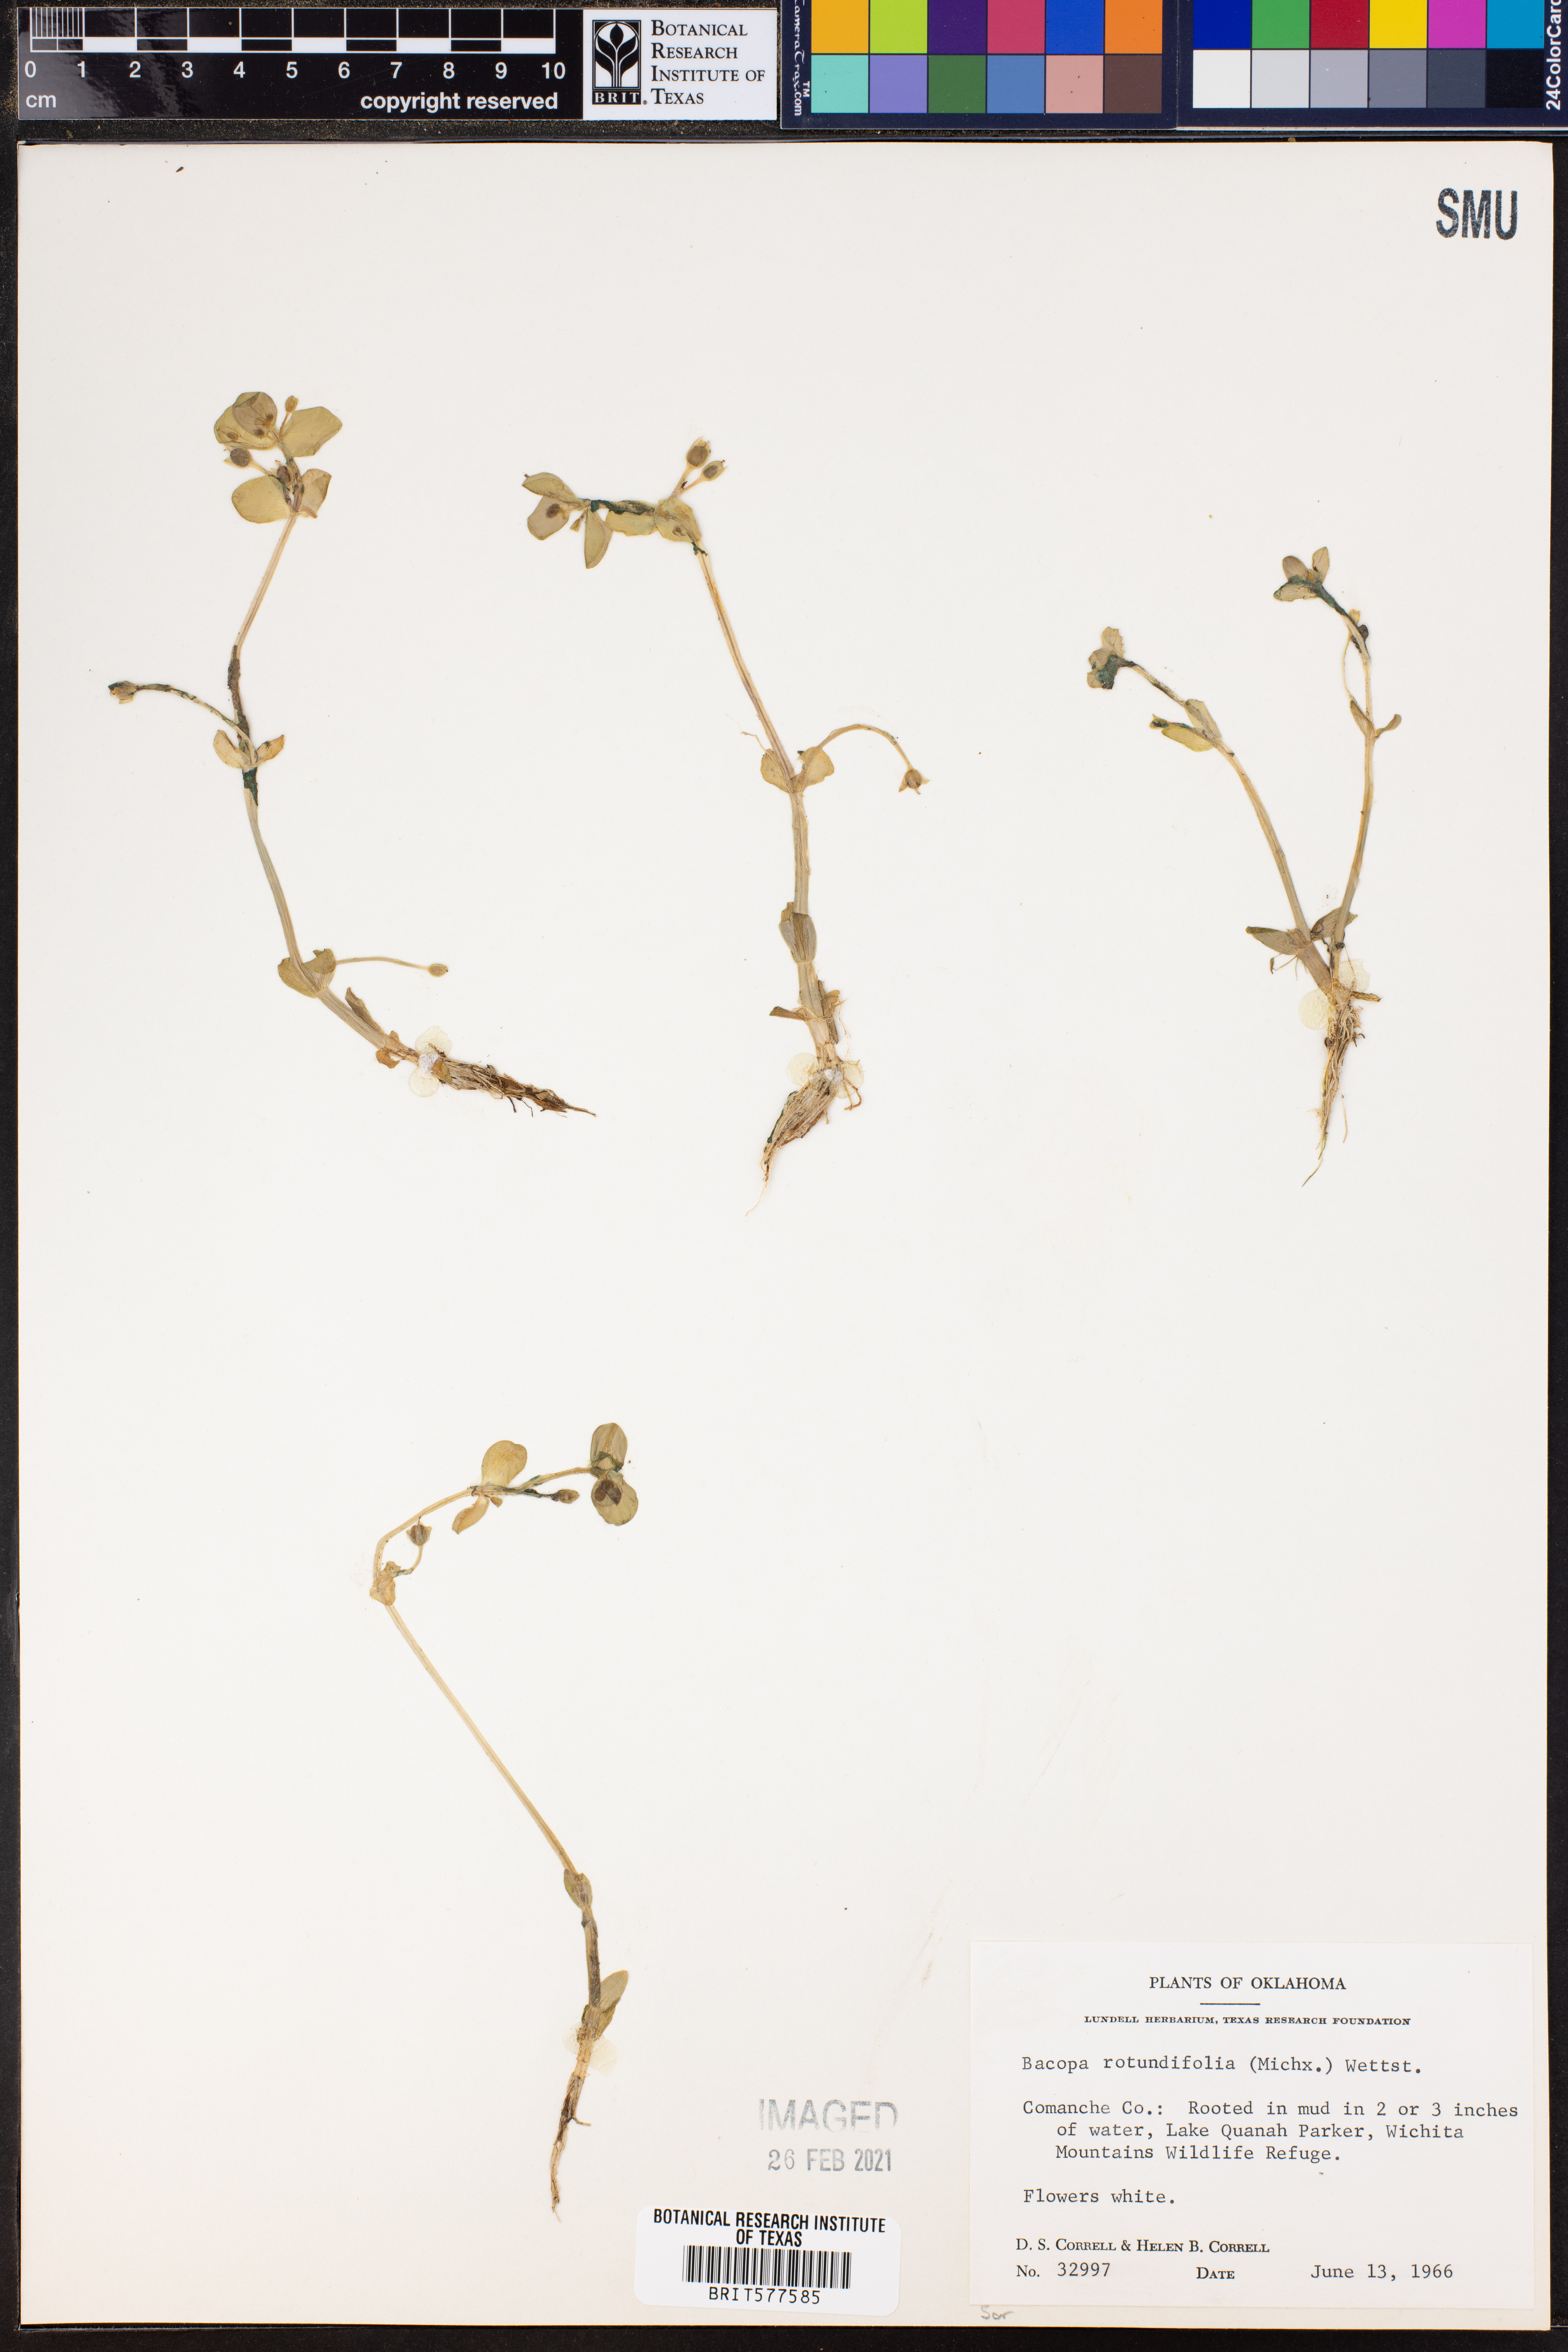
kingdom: Plantae
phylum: Tracheophyta
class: Magnoliopsida
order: Lamiales
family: Plantaginaceae
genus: Bacopa
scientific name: Bacopa rotundifolia
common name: Disc water hyssop
